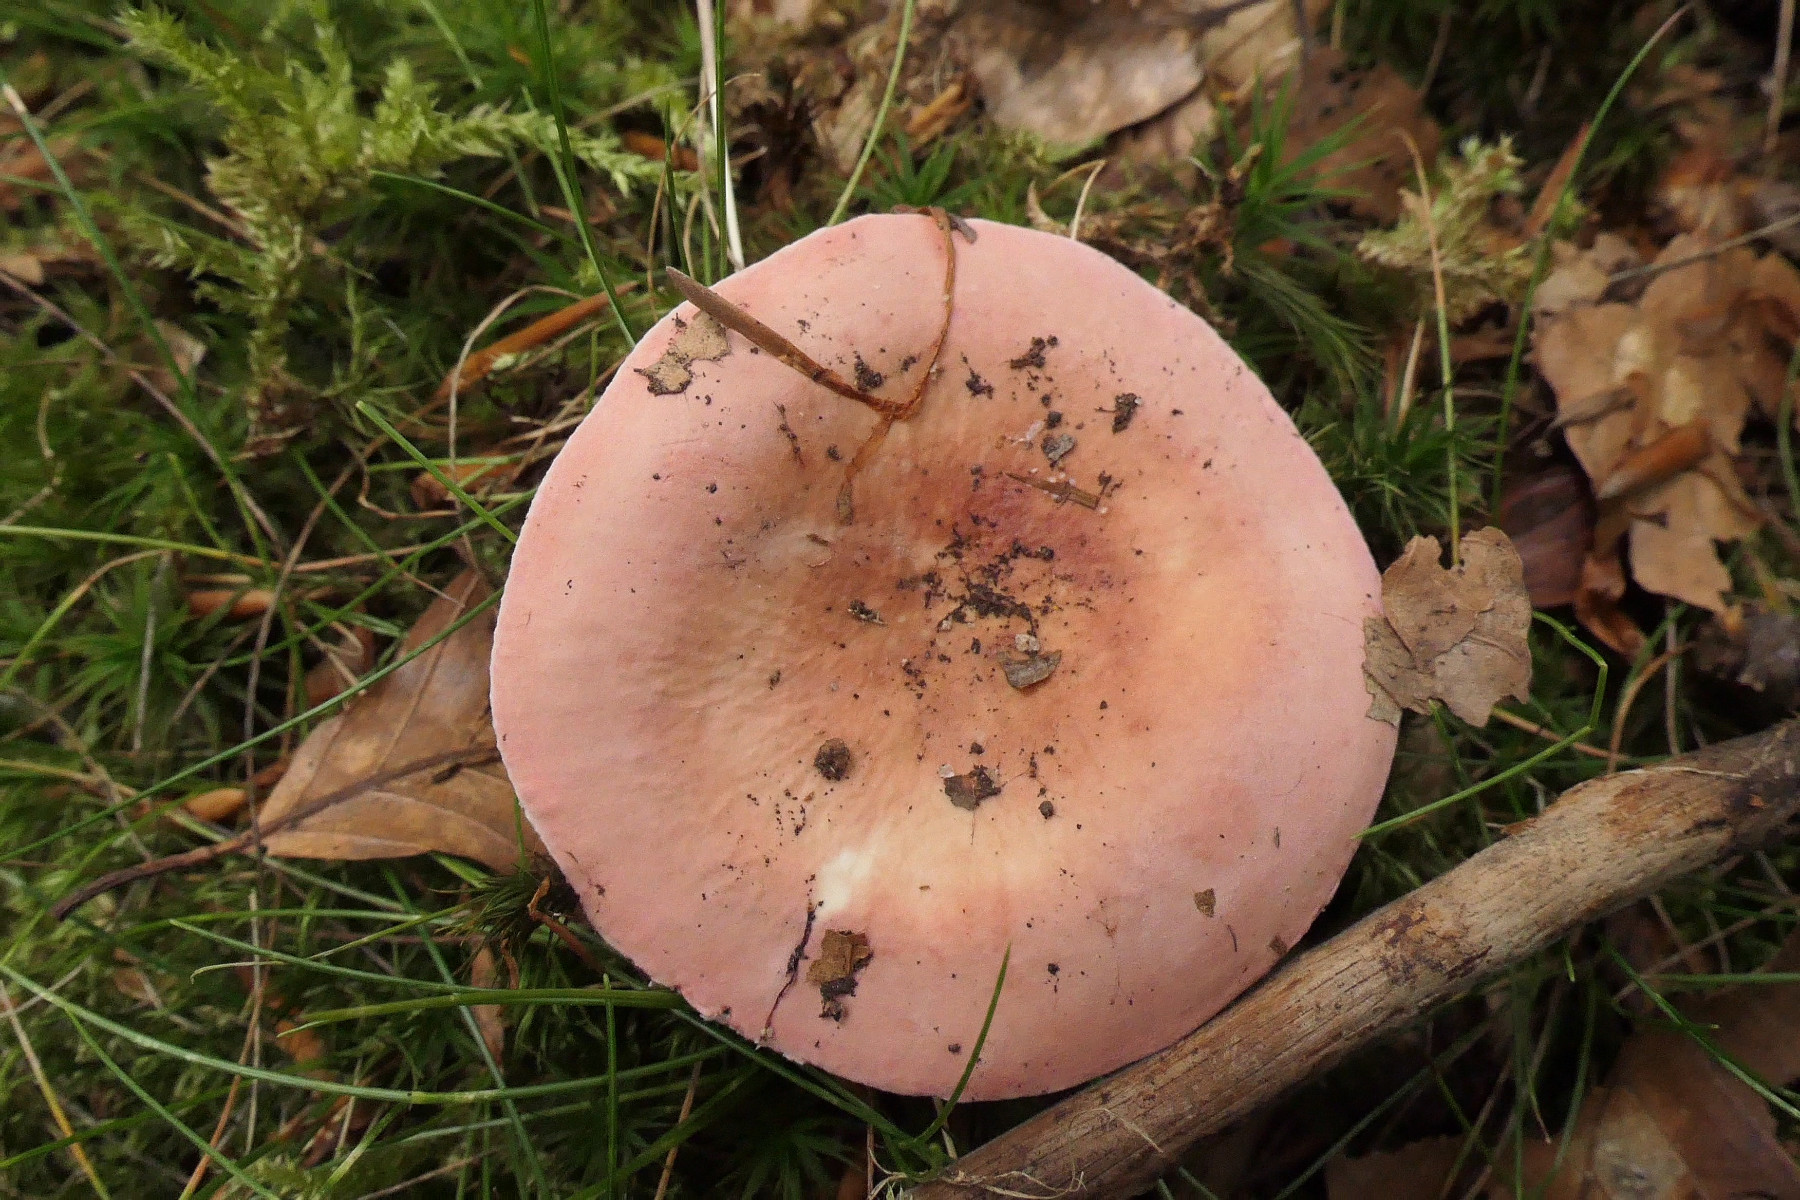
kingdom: Fungi
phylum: Basidiomycota
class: Agaricomycetes
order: Russulales
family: Russulaceae
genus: Russula
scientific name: Russula aurora
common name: rosa skørhat
